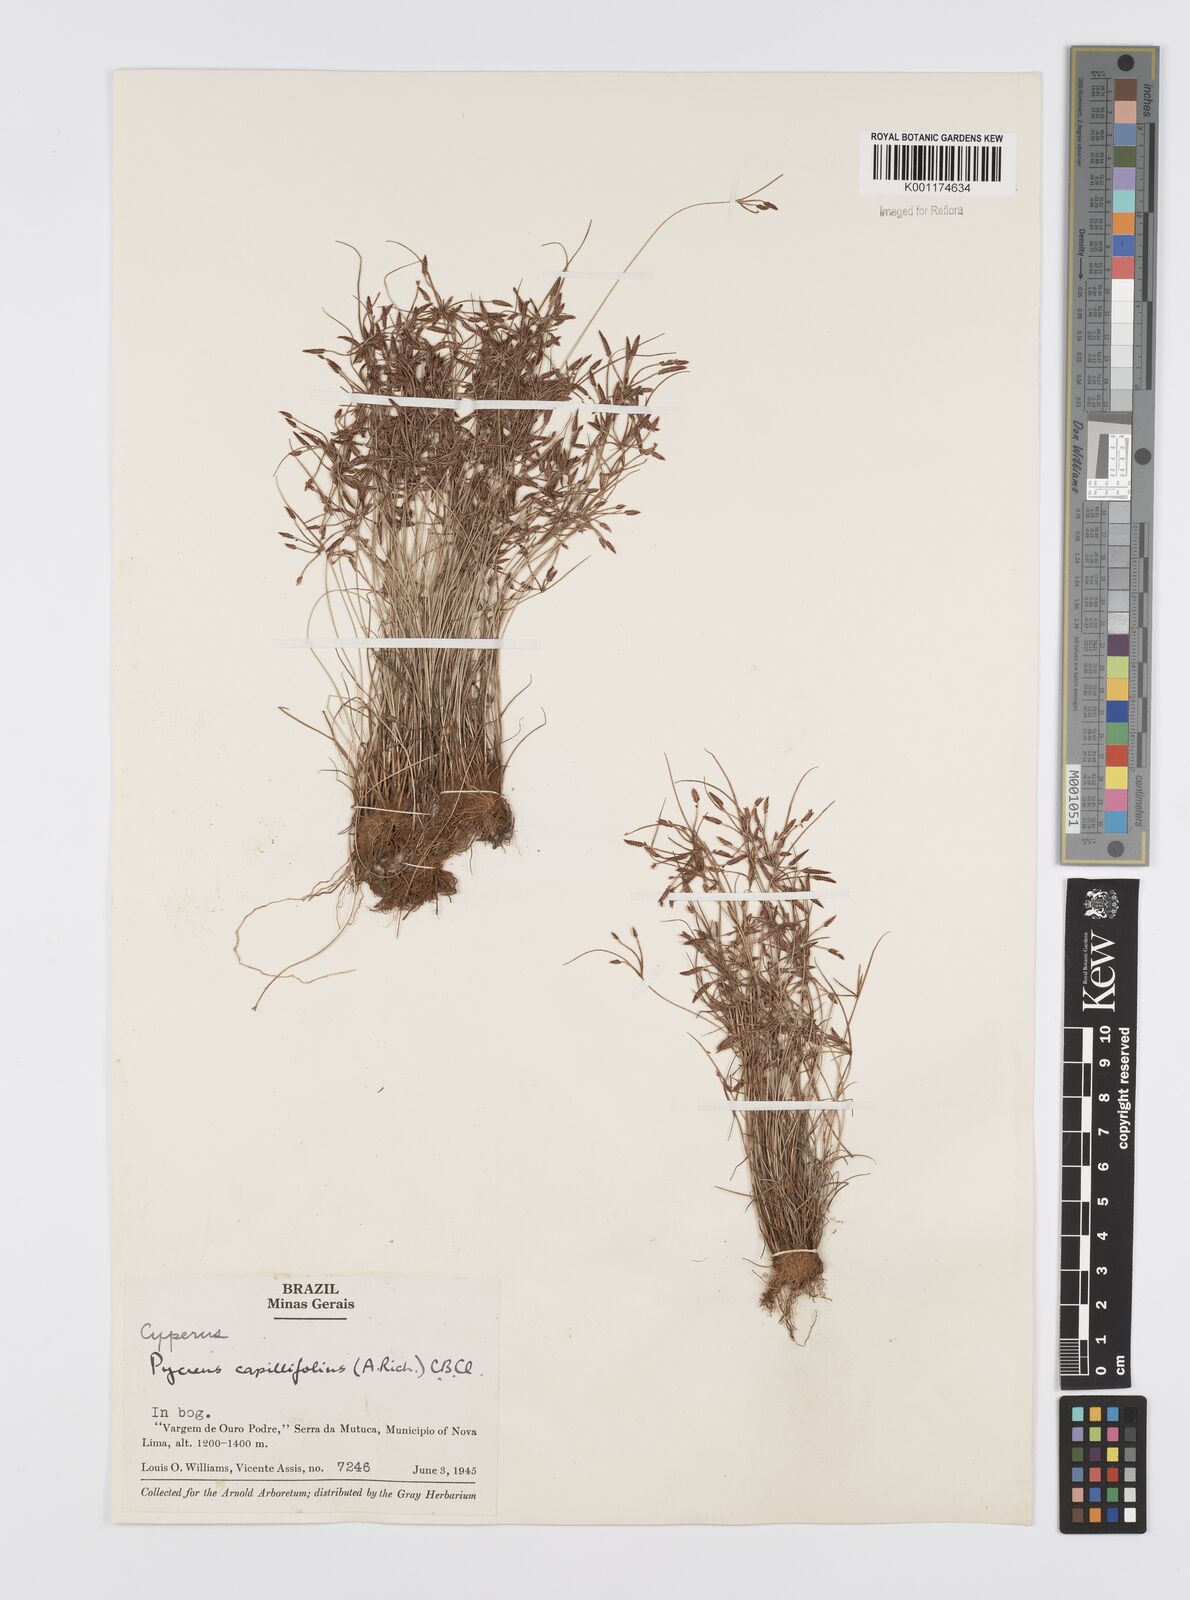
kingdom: Plantae
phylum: Tracheophyta
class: Liliopsida
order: Poales
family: Cyperaceae
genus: Cyperus
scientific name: Cyperus capillifolius
